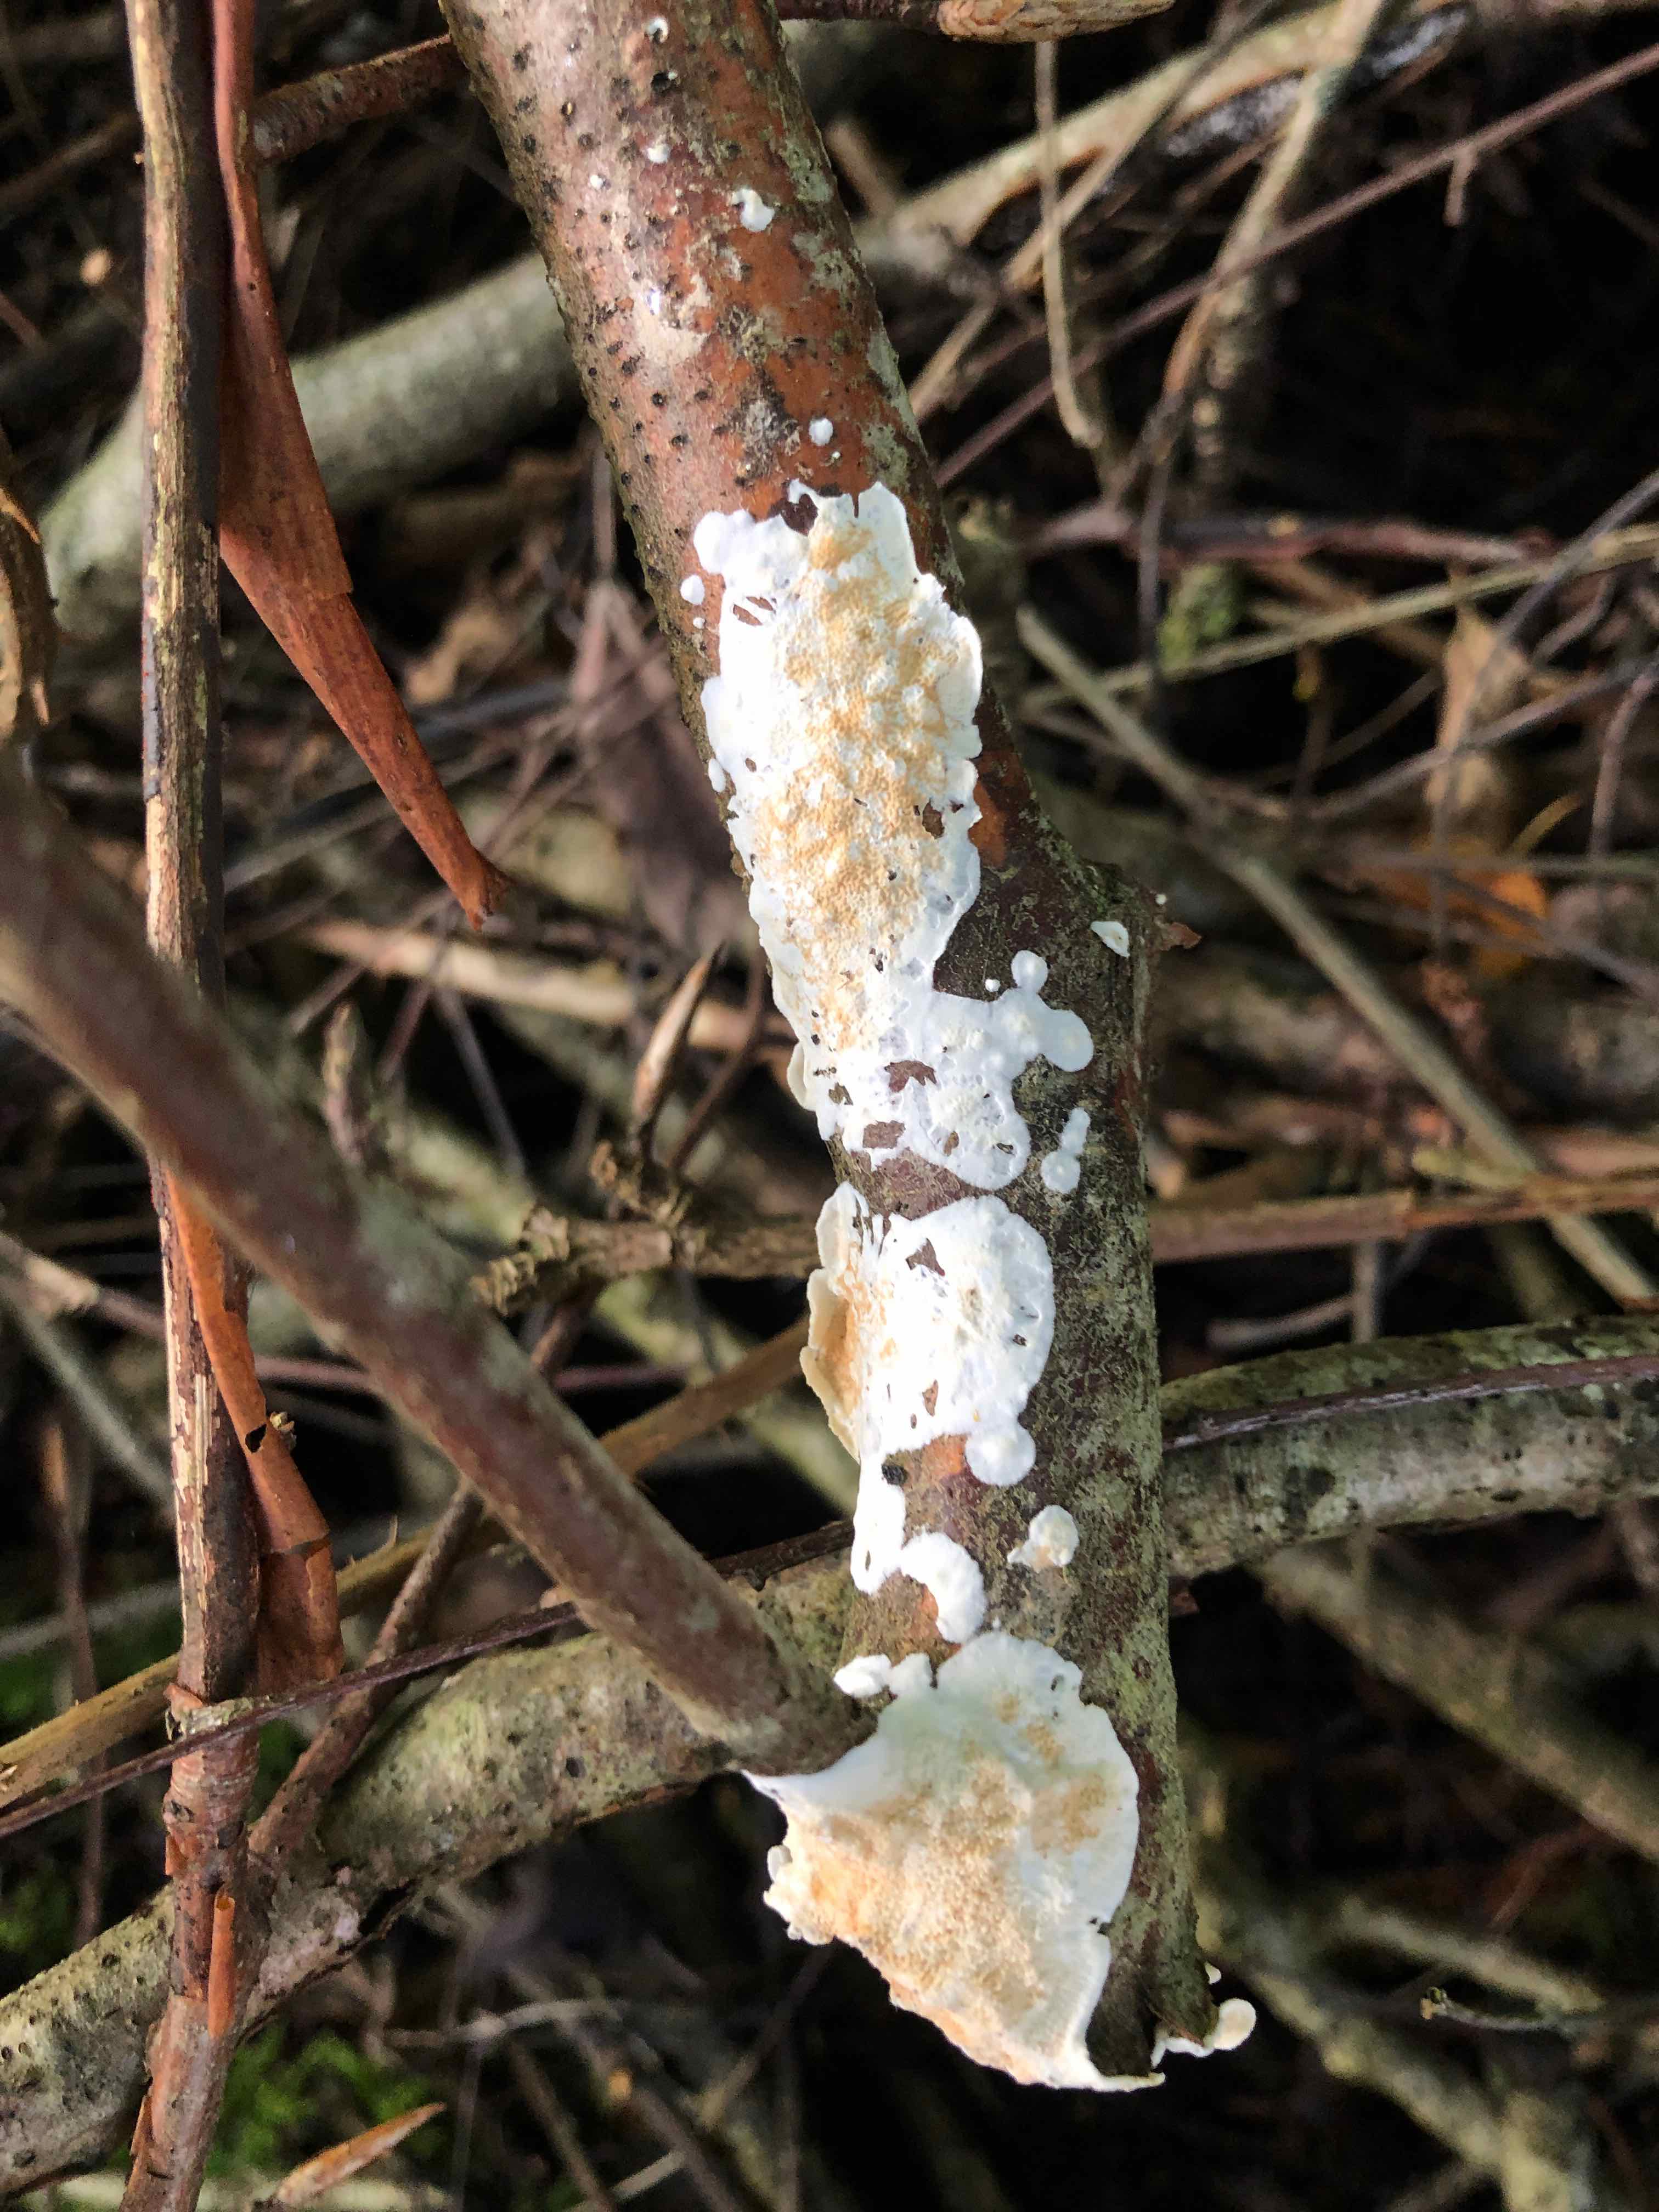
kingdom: Fungi
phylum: Basidiomycota
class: Agaricomycetes
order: Polyporales
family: Irpicaceae
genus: Byssomerulius
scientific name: Byssomerulius corium
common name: læder-åresvamp
